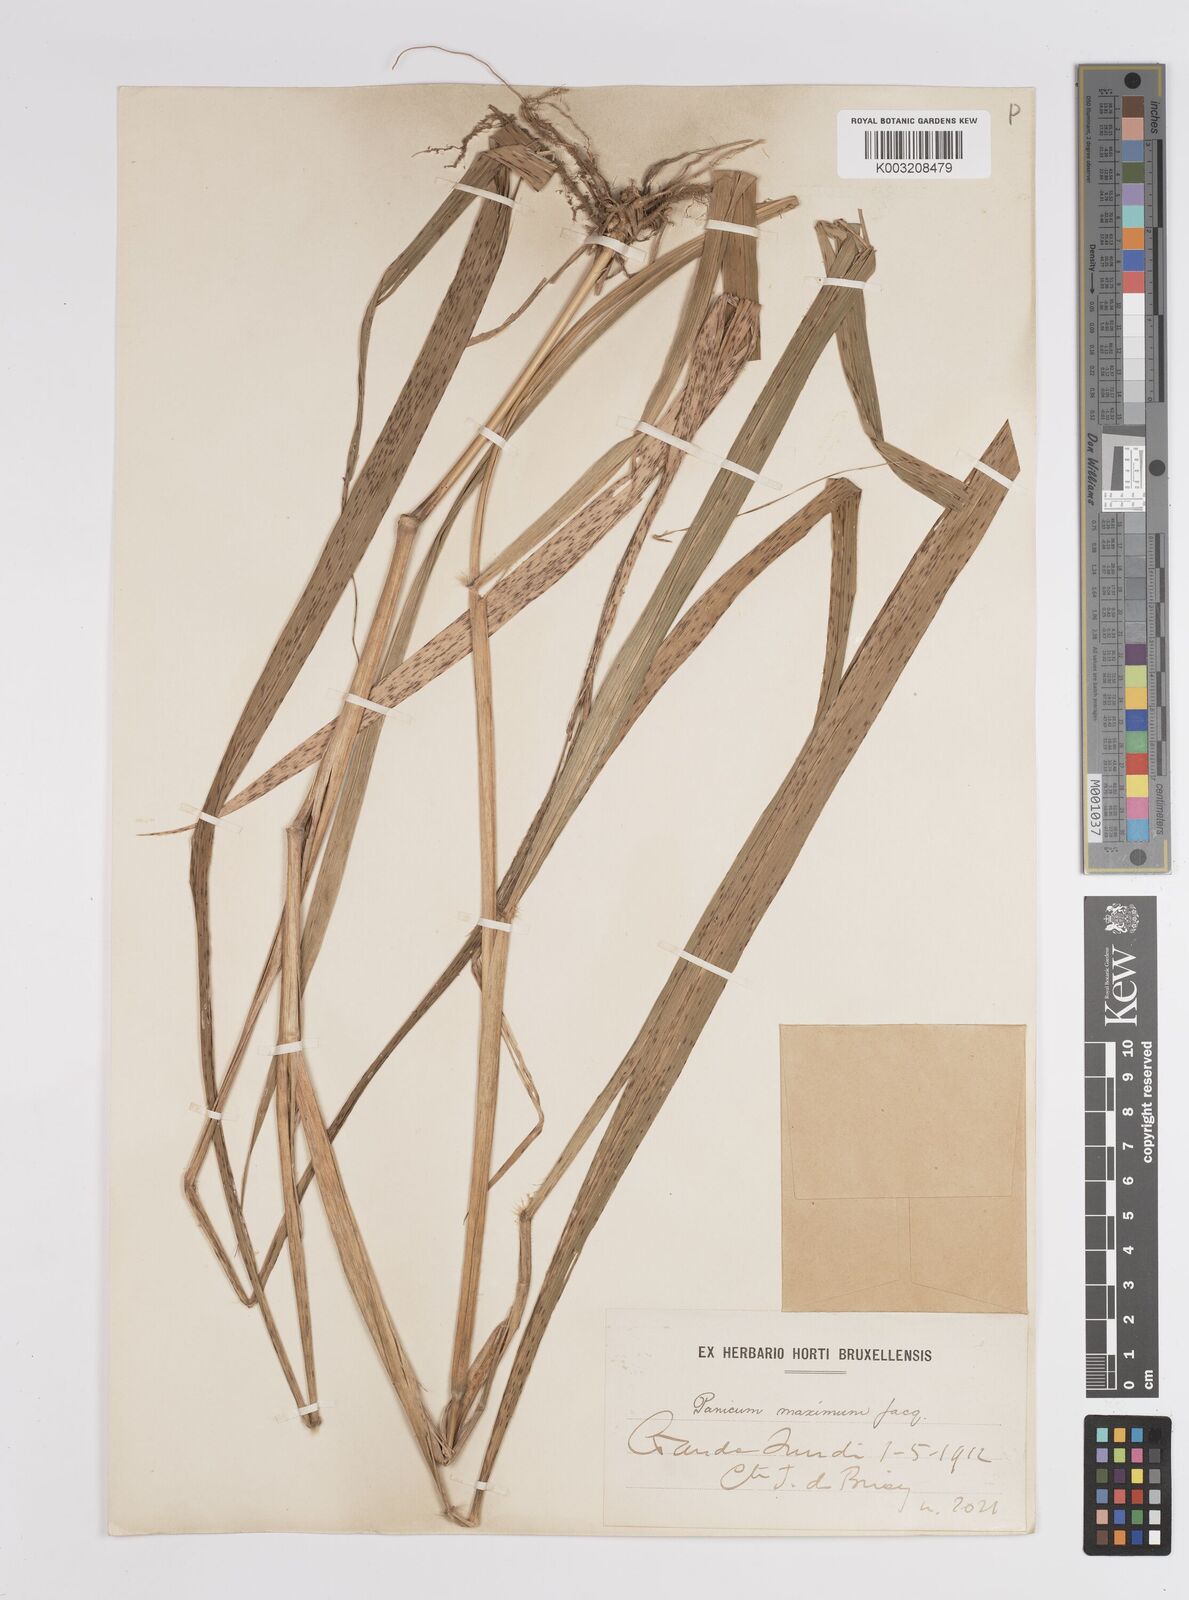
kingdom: Plantae
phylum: Tracheophyta
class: Liliopsida
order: Poales
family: Poaceae
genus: Megathyrsus
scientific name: Megathyrsus maximus
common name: Guineagrass
